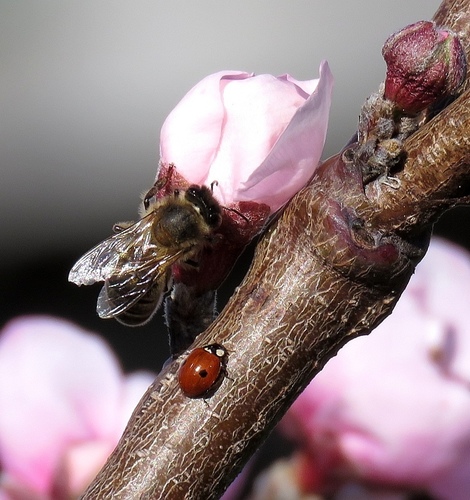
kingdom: Animalia
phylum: Arthropoda
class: Insecta
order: Coleoptera
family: Coccinellidae
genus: Adalia
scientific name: Adalia bipunctata
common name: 2-spot ladybird
